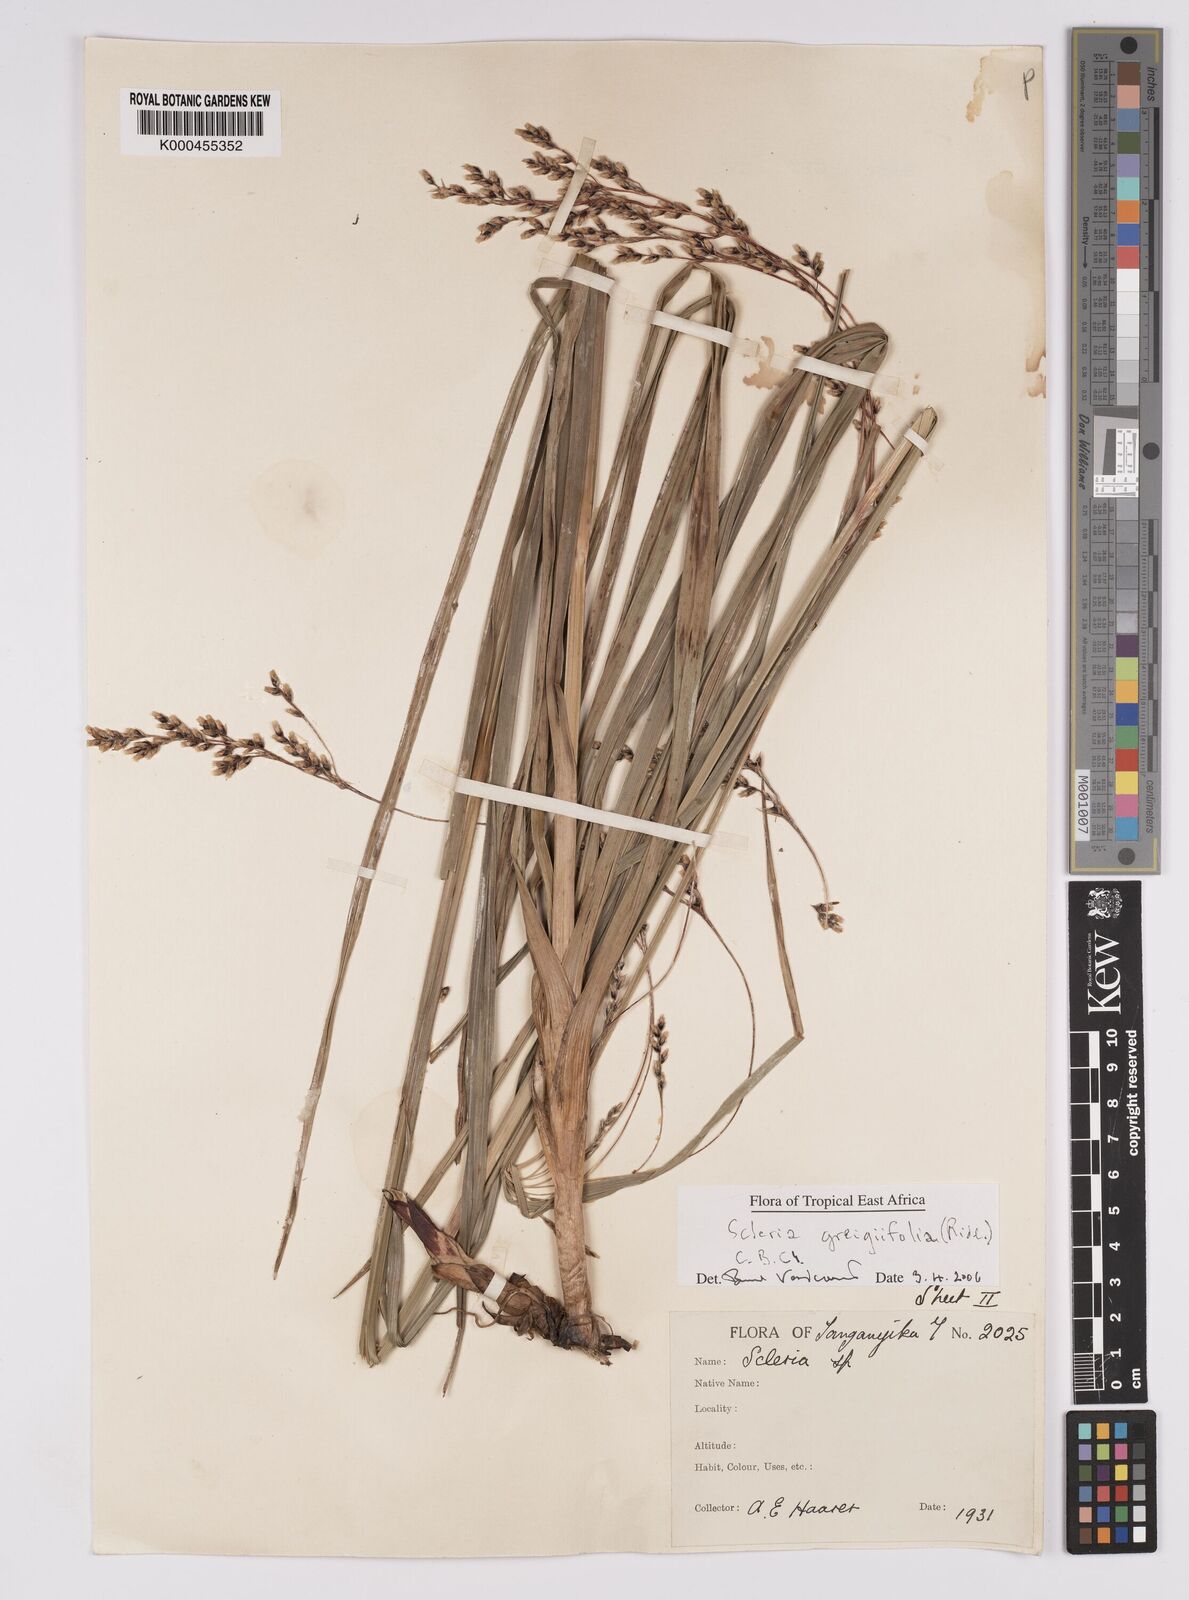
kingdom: Plantae
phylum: Tracheophyta
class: Liliopsida
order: Poales
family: Cyperaceae
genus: Scleria
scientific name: Scleria greigiifolia
